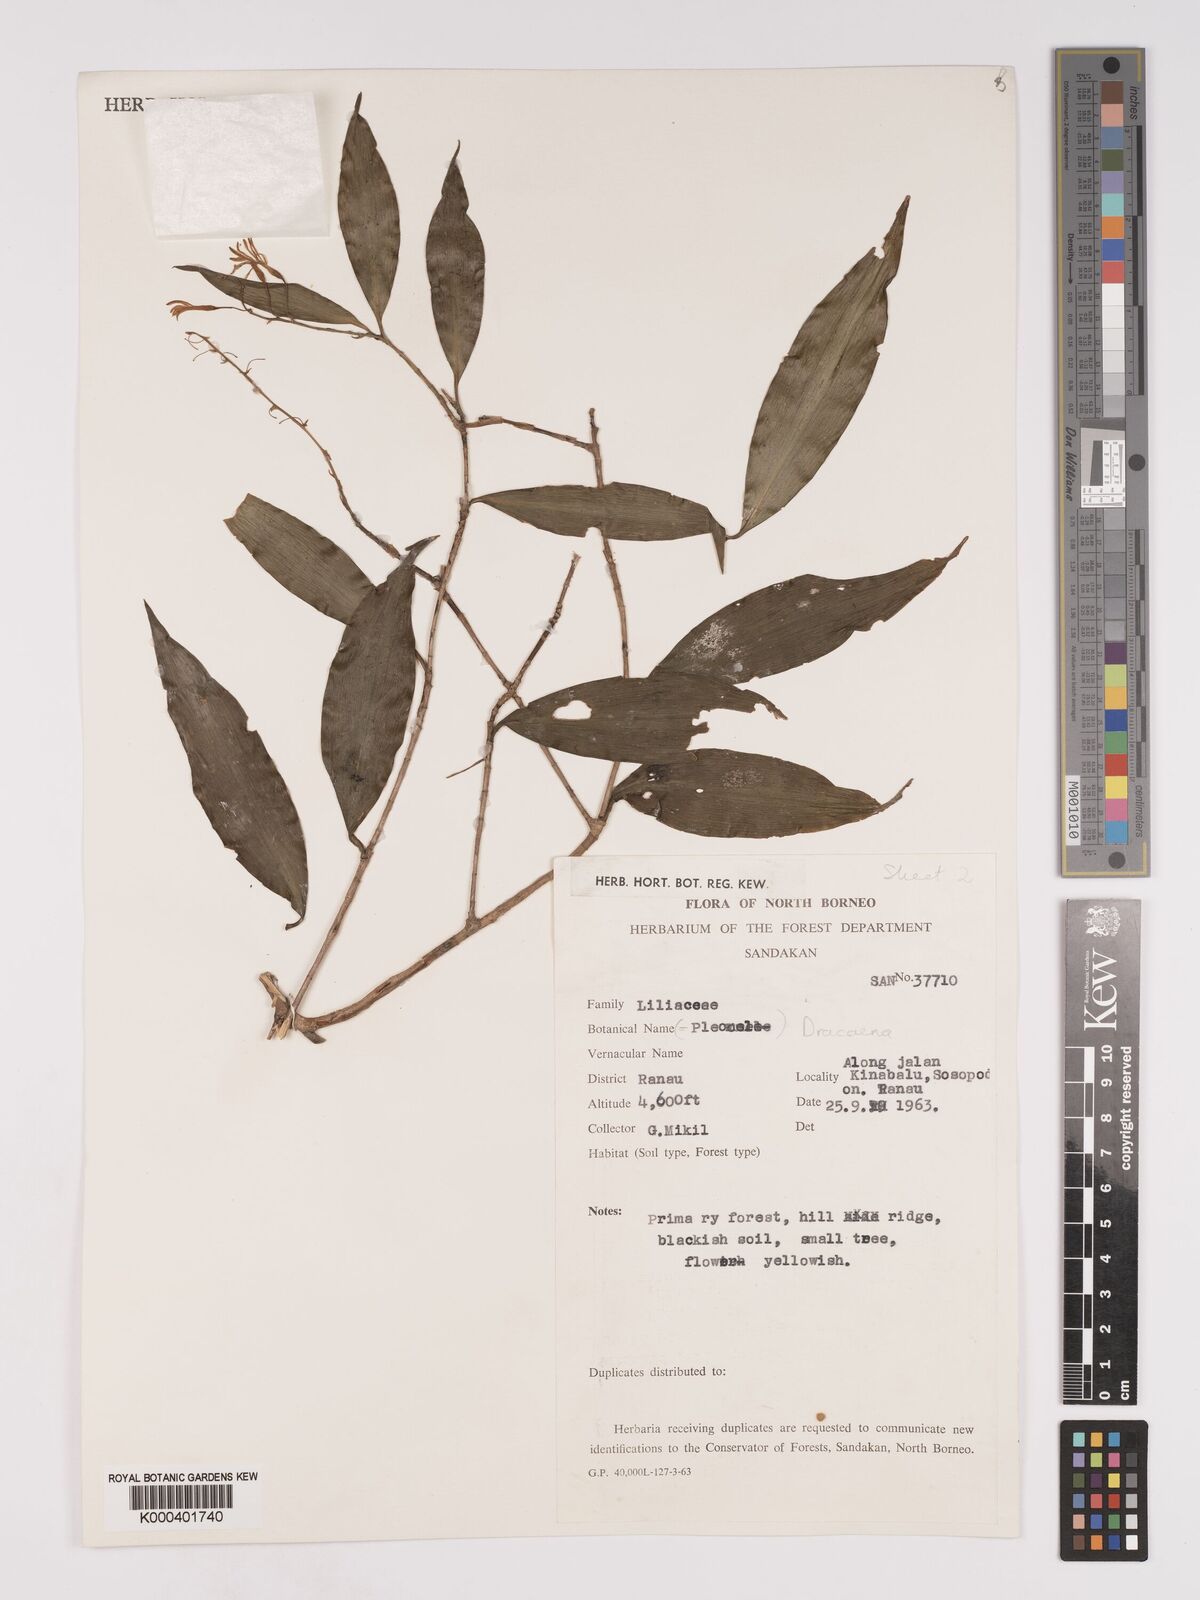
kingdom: Plantae
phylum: Tracheophyta
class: Liliopsida
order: Asparagales
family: Asparagaceae
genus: Dracaena
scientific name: Dracaena elliptica
